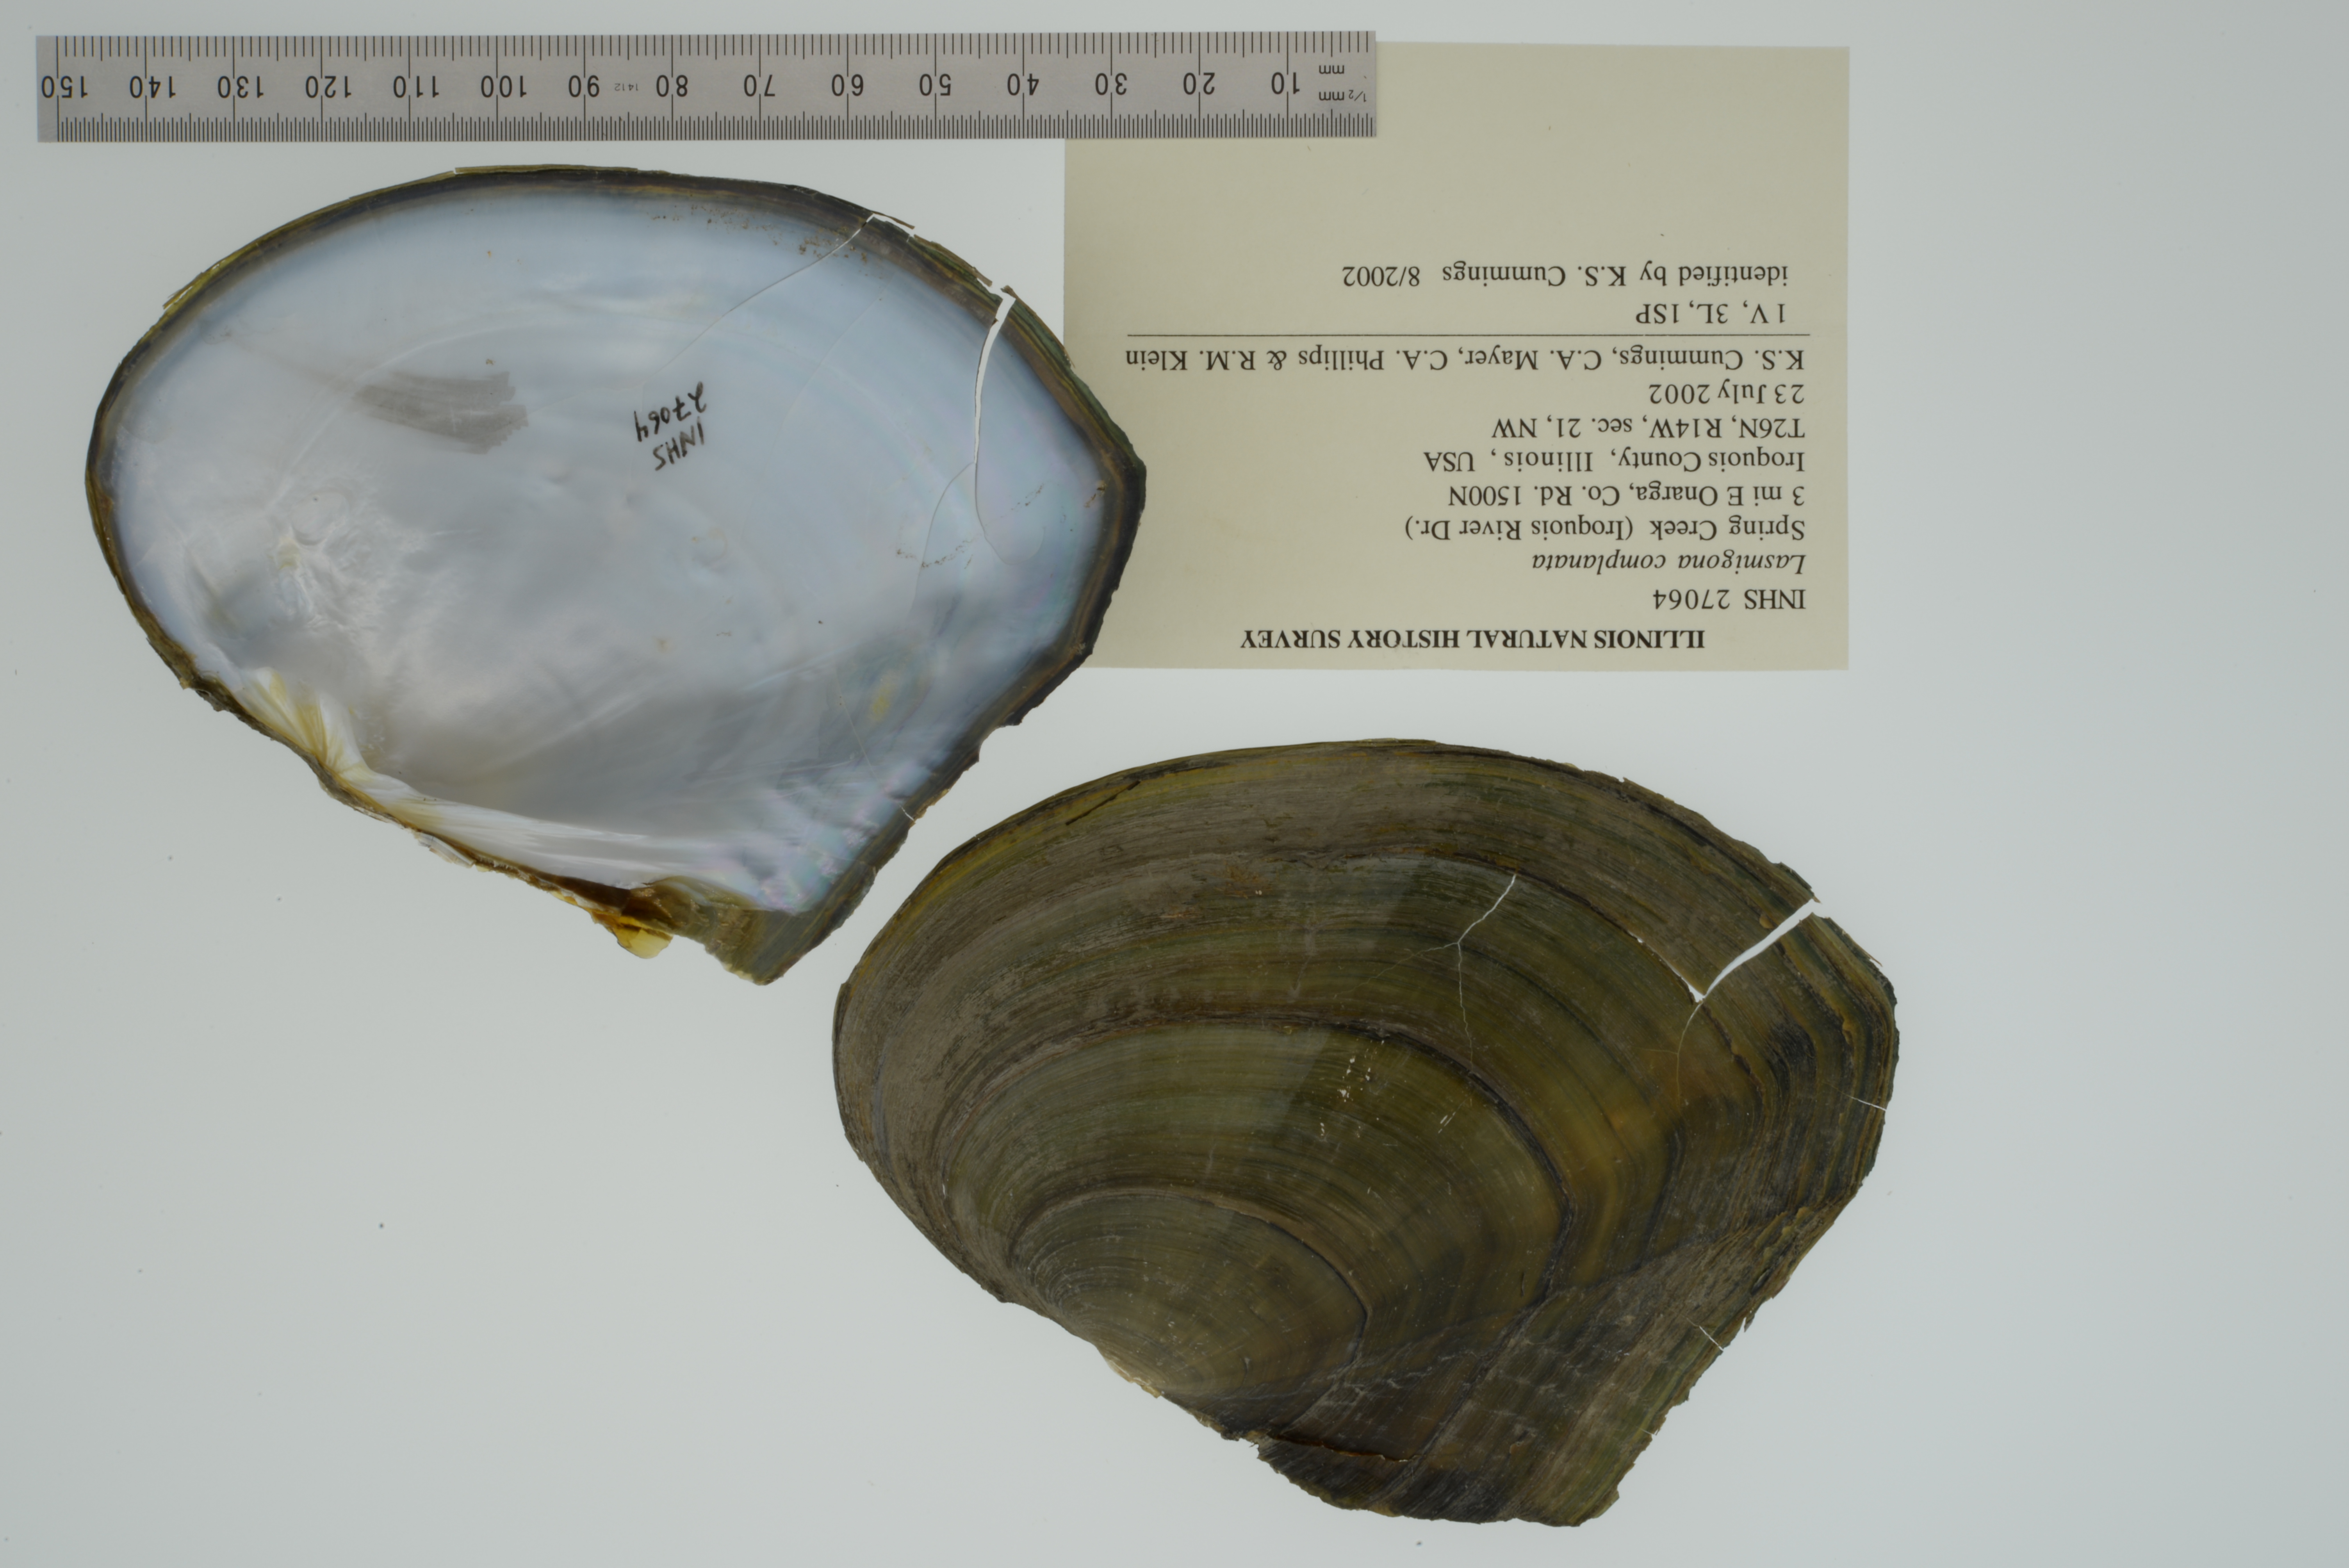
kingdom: Animalia
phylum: Mollusca
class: Bivalvia
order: Unionida
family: Unionidae
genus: Lasmigona
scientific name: Lasmigona complanata
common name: White heelsplitter
